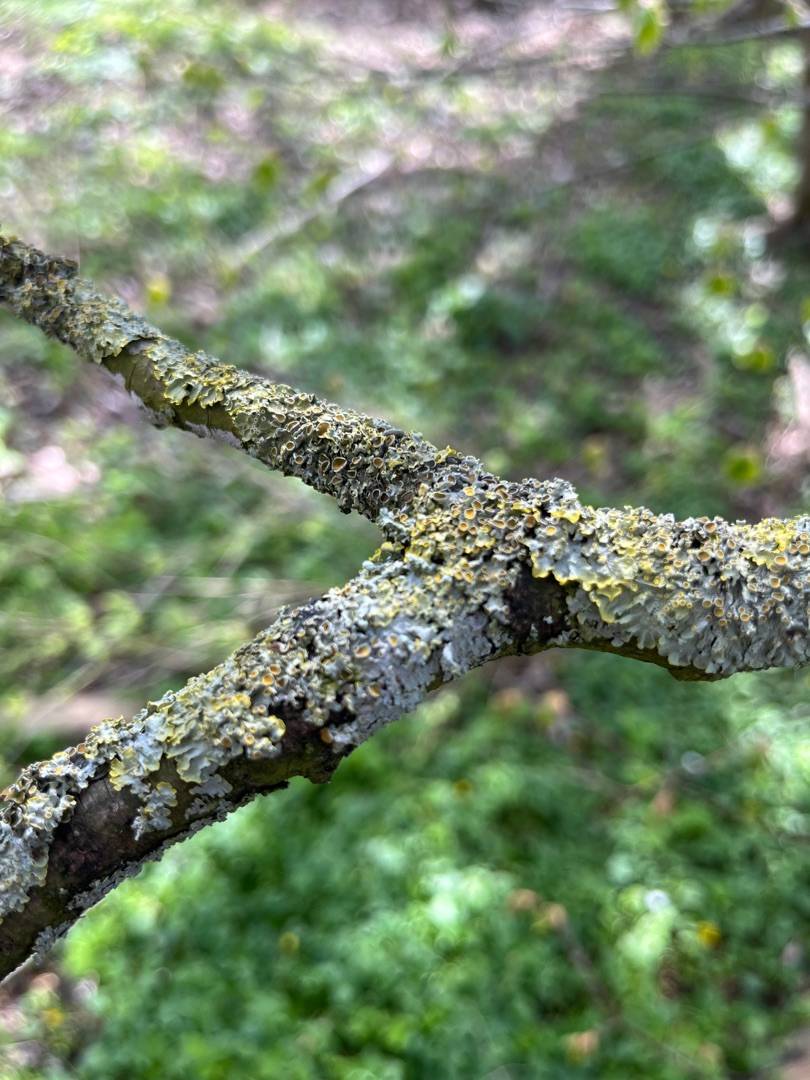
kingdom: Fungi
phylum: Ascomycota
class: Lecanoromycetes
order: Teloschistales
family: Teloschistaceae
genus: Xanthoria
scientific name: Xanthoria parietina
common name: Almindelig væggelav
